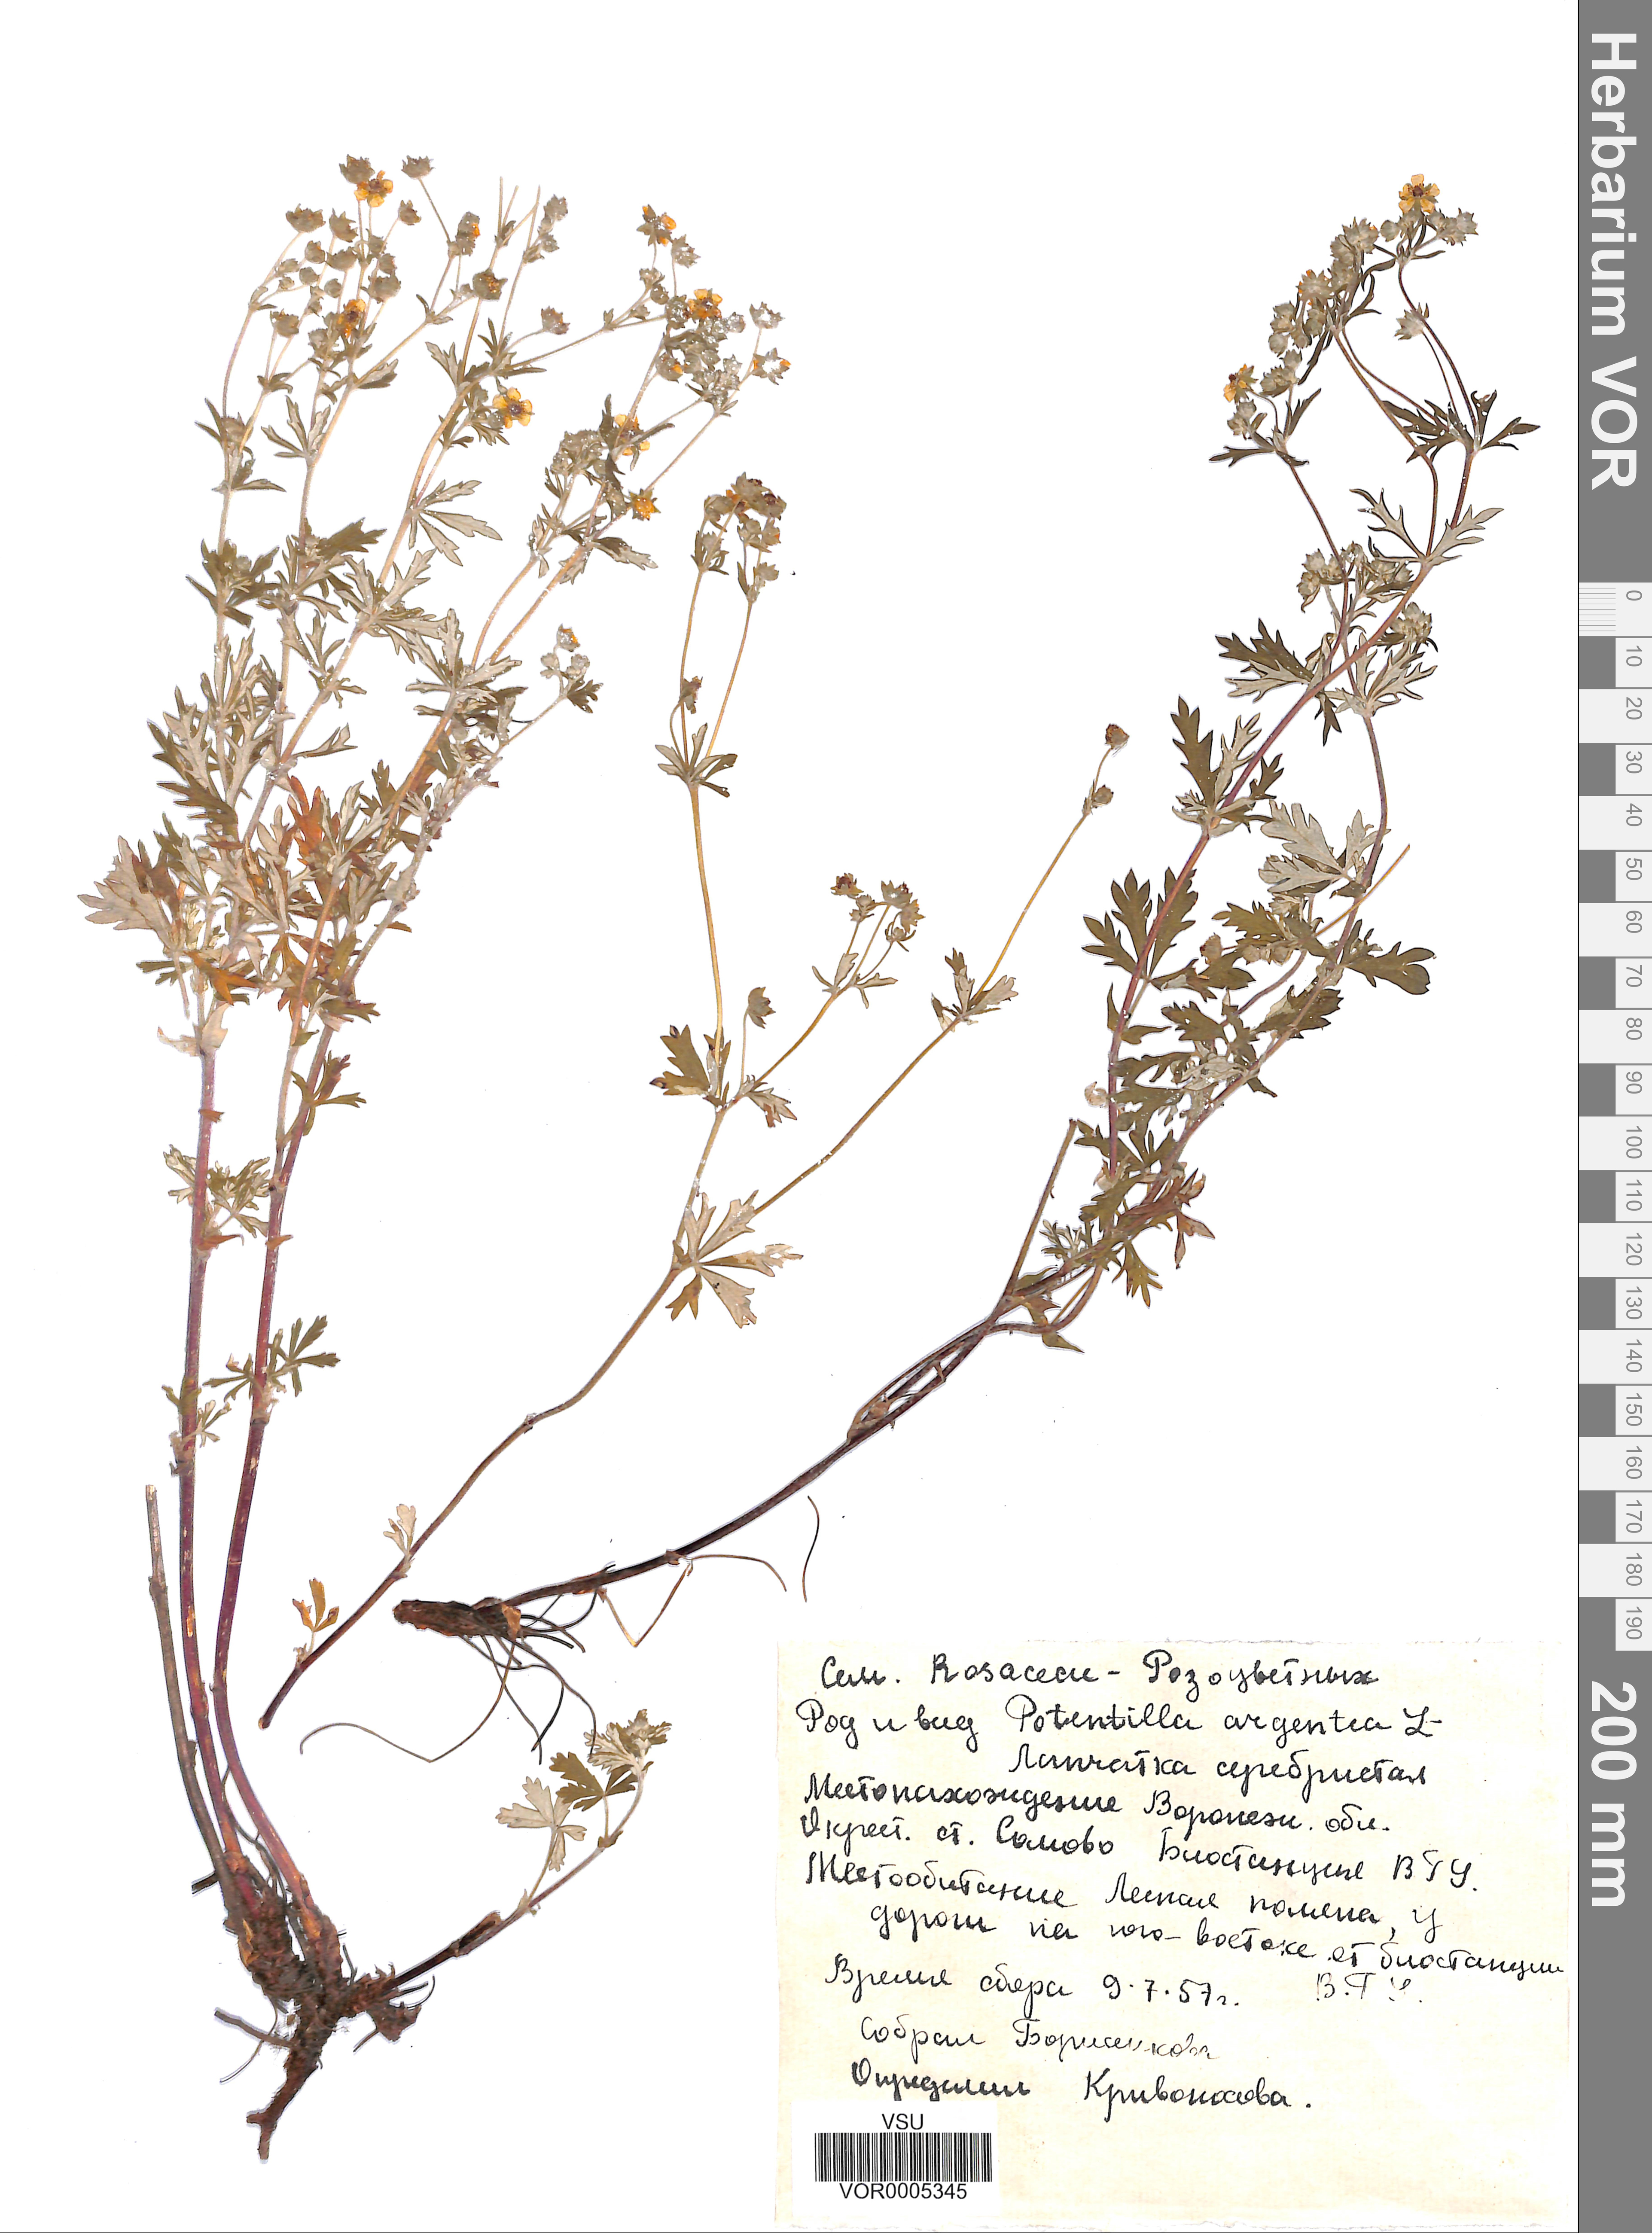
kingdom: Plantae
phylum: Tracheophyta
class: Magnoliopsida
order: Rosales
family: Rosaceae
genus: Potentilla
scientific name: Potentilla argentea
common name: Hoary cinquefoil
